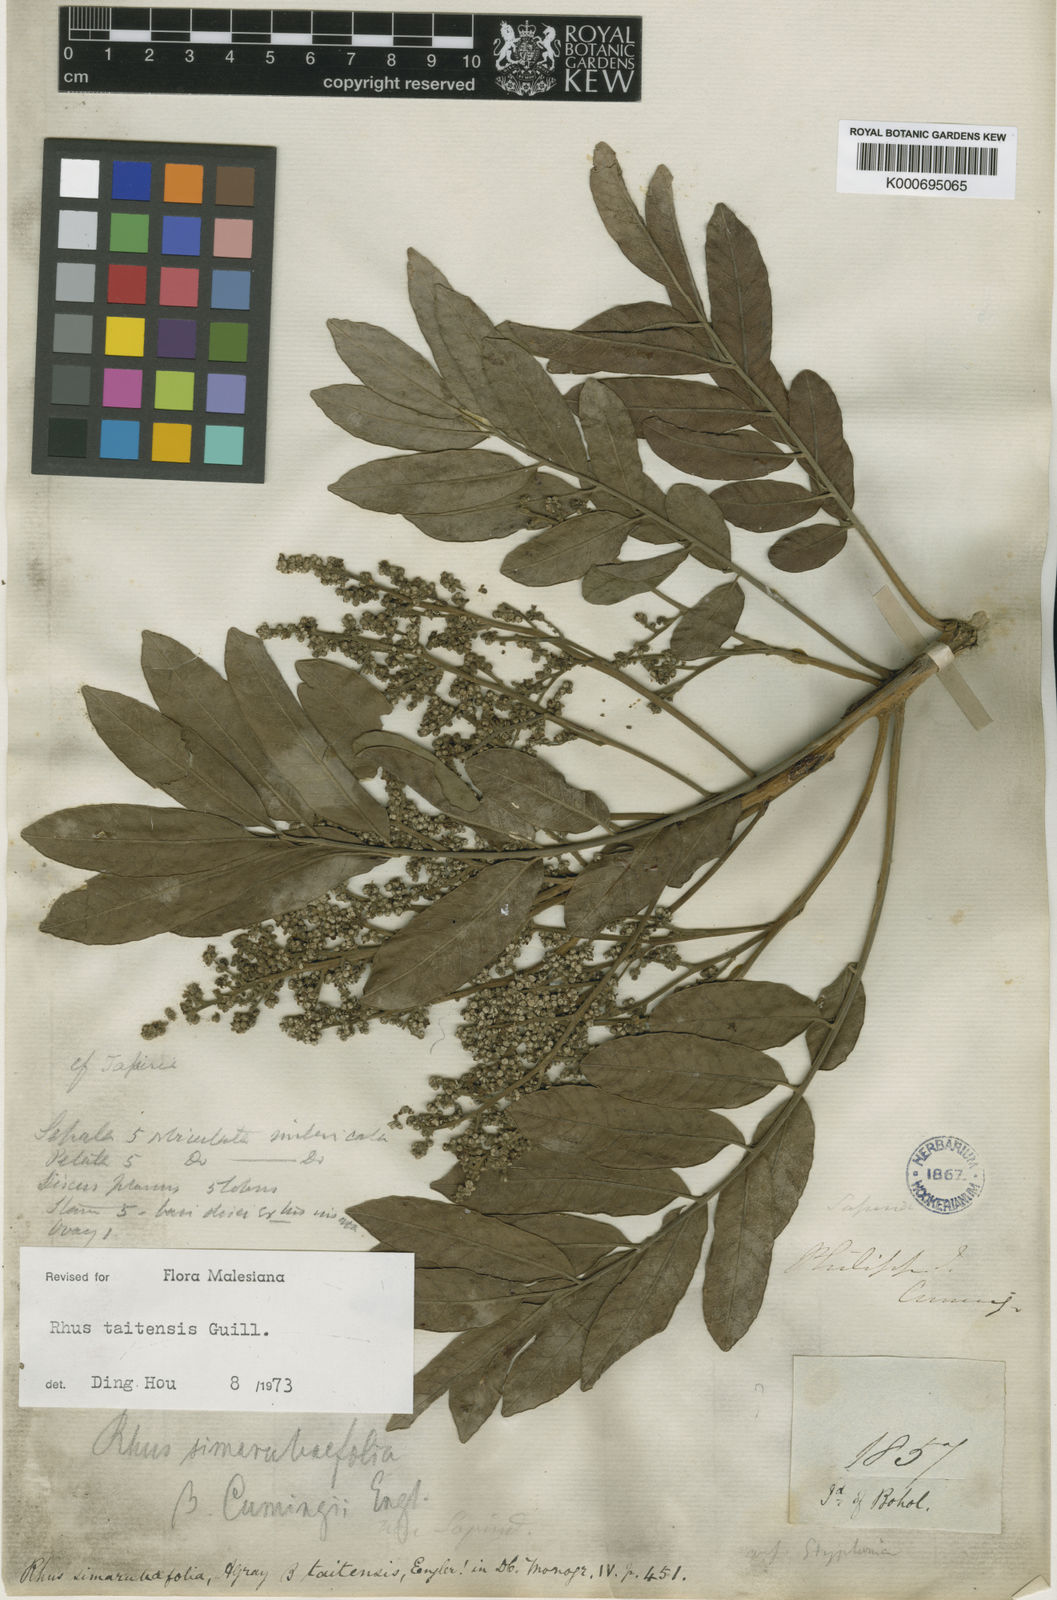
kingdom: Plantae
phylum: Tracheophyta
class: Magnoliopsida
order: Sapindales
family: Anacardiaceae
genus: Melanococca
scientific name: Melanococca tomentosa
